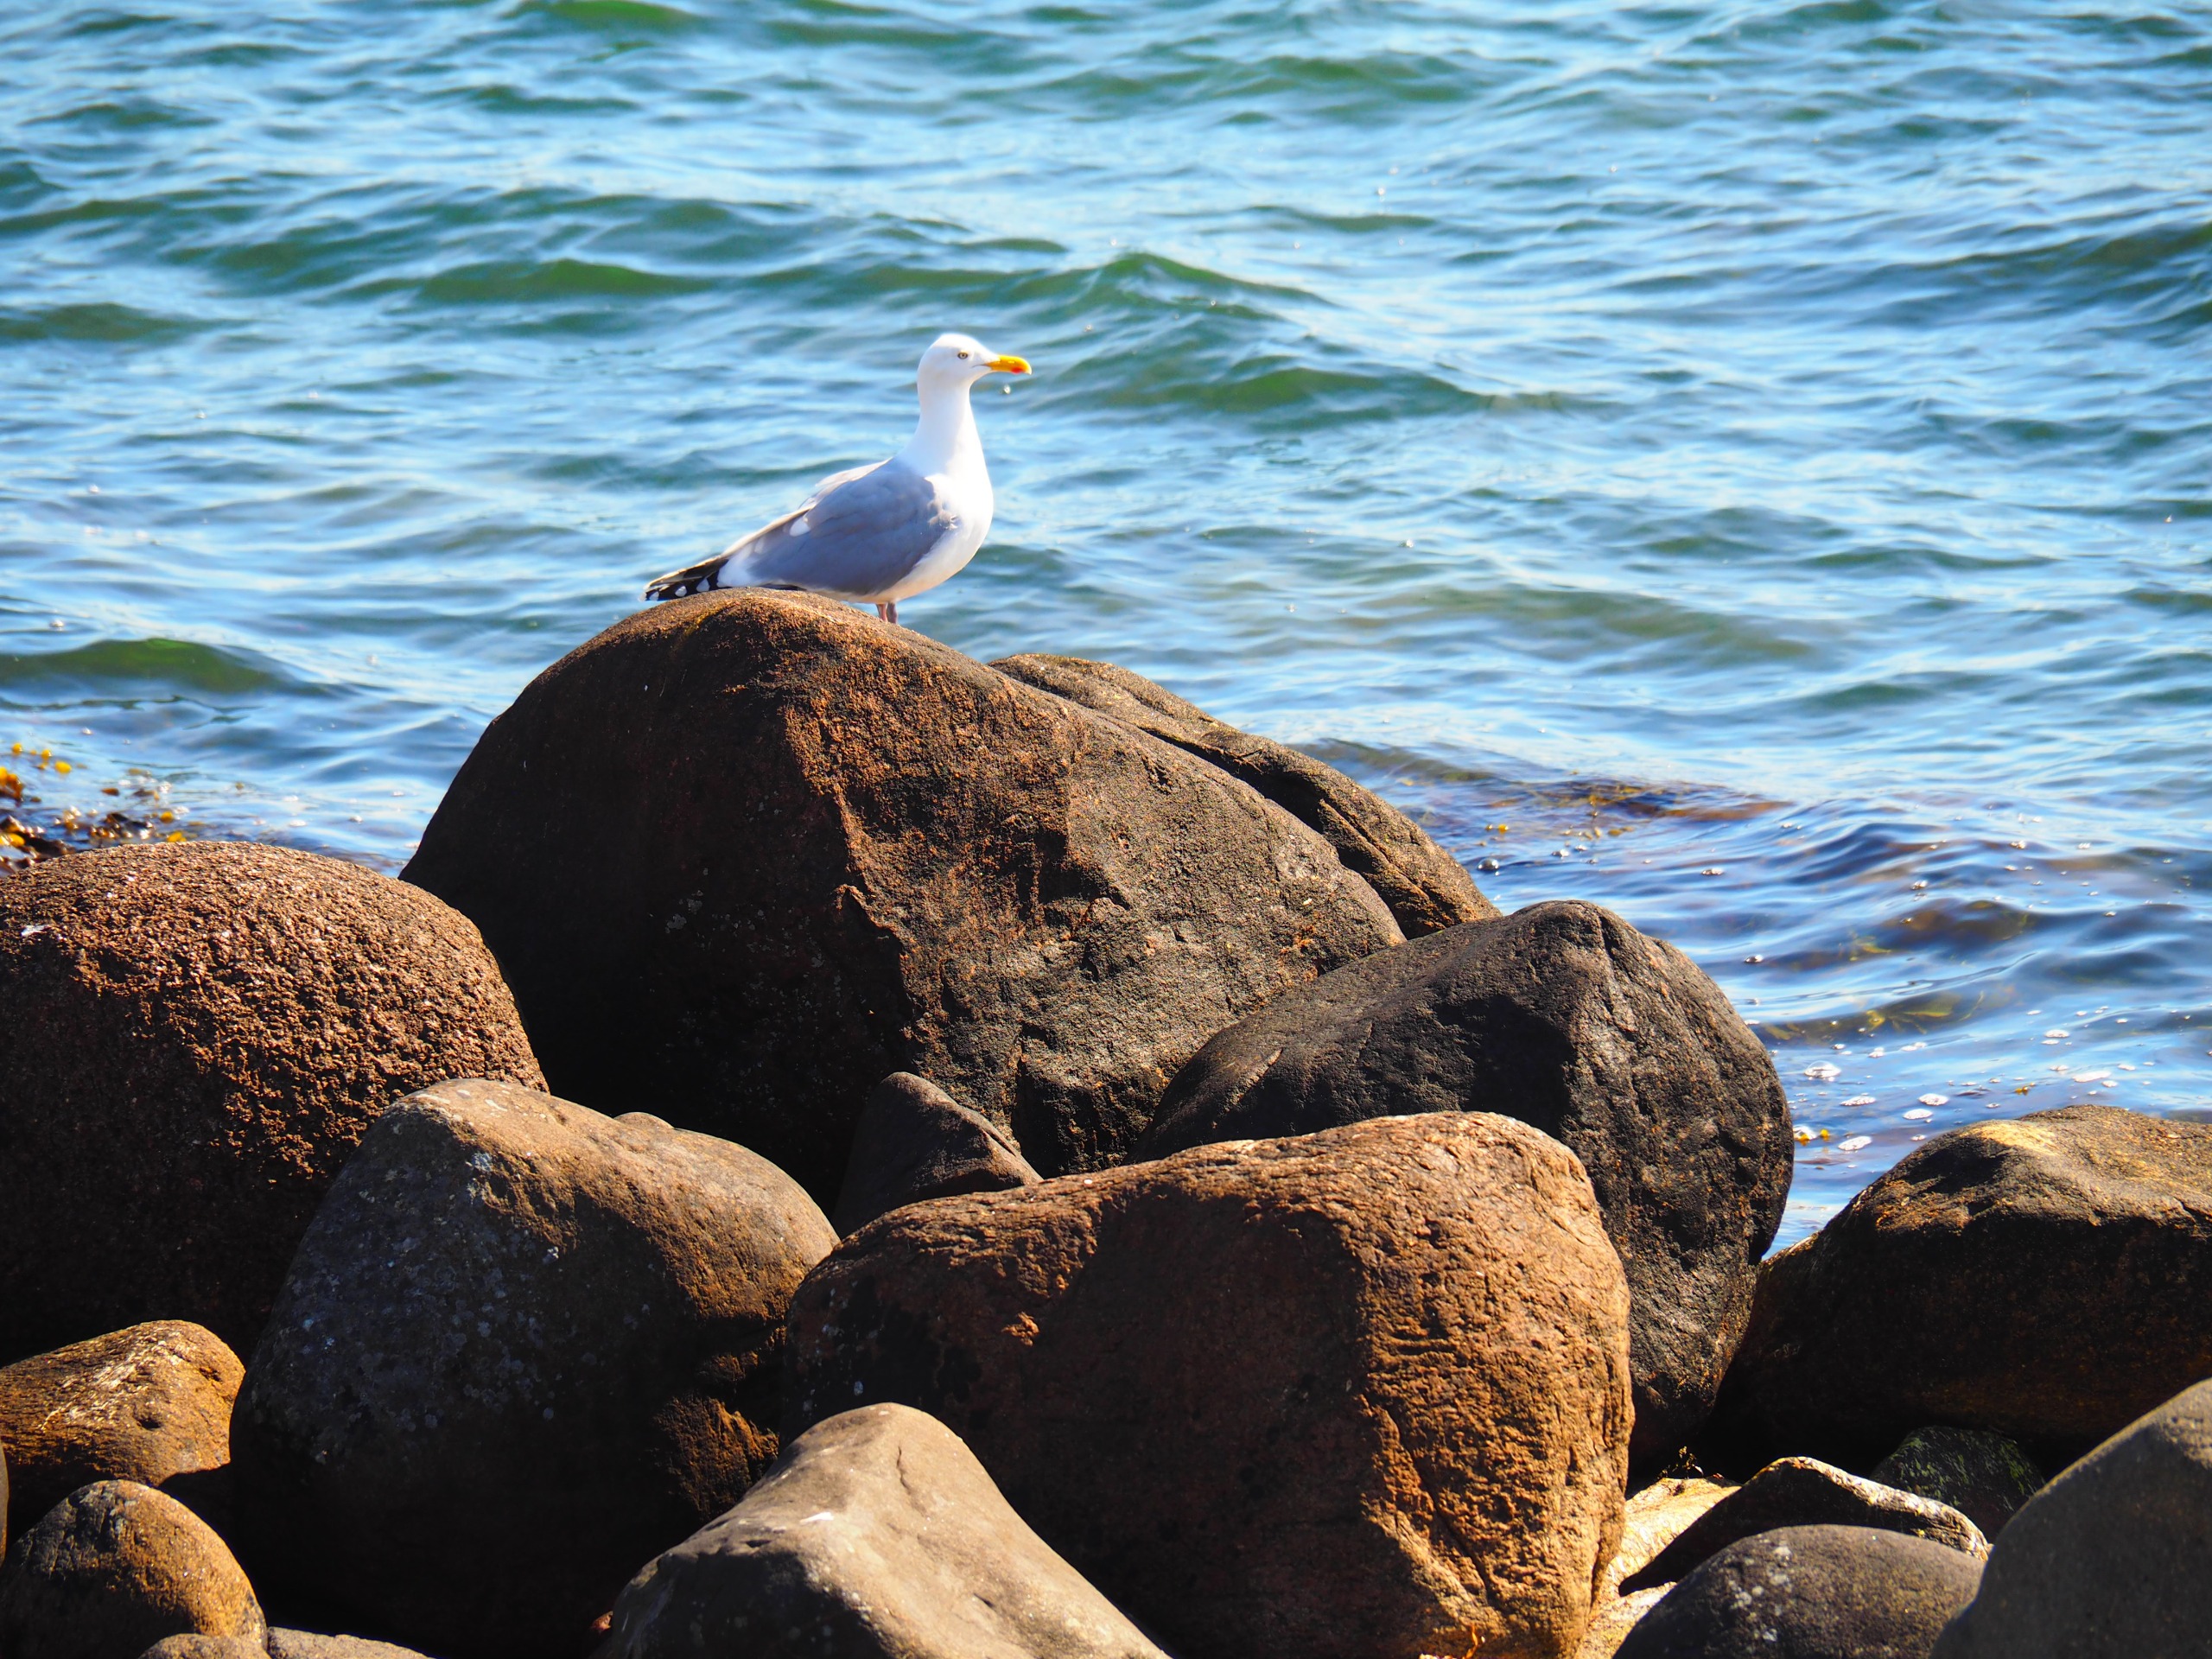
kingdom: Animalia
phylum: Chordata
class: Aves
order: Charadriiformes
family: Laridae
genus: Larus
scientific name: Larus argentatus
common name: Sølvmåge
